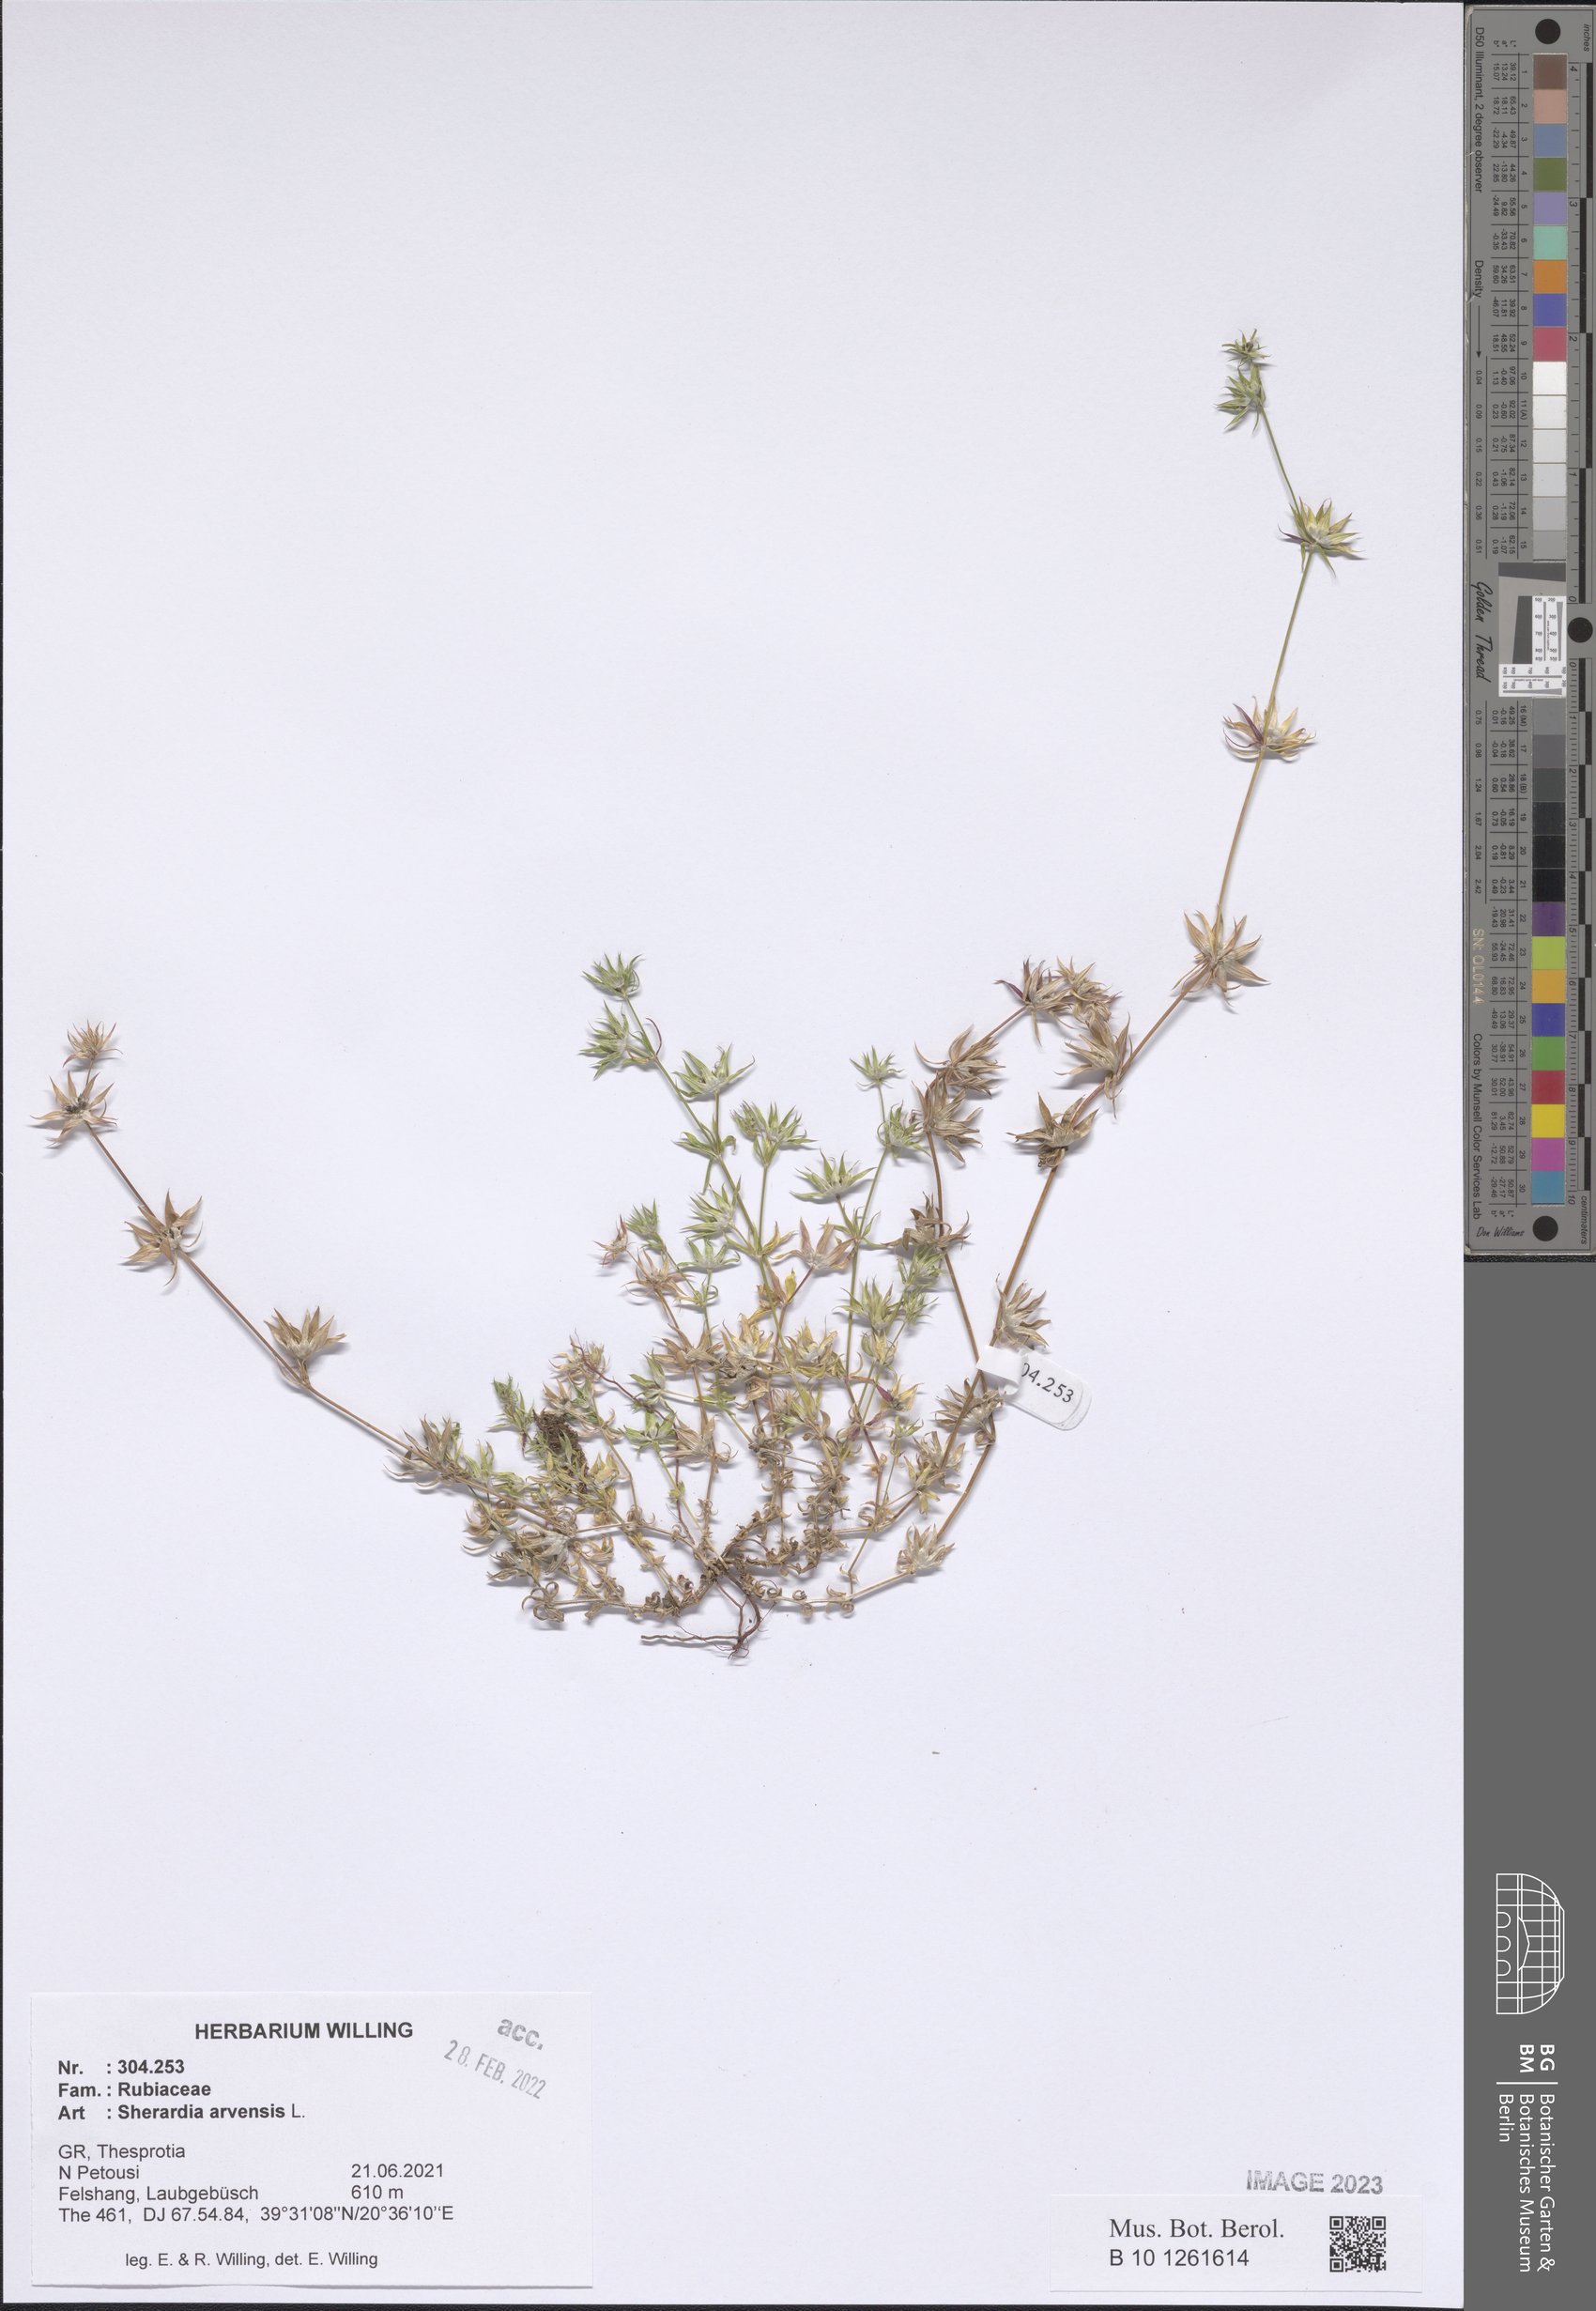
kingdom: Plantae
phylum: Tracheophyta
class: Magnoliopsida
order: Gentianales
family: Rubiaceae
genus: Sherardia
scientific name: Sherardia arvensis
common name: Field madder
